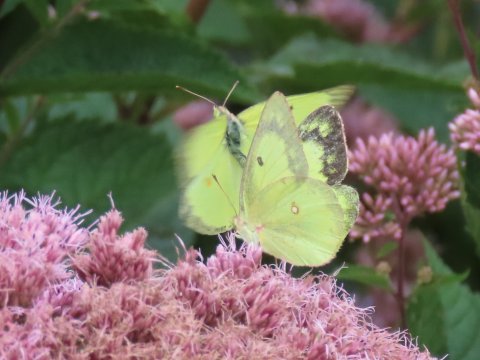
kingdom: Animalia
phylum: Arthropoda
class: Insecta
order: Lepidoptera
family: Pieridae
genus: Colias
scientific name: Colias eurytheme
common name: Orange Sulphur
